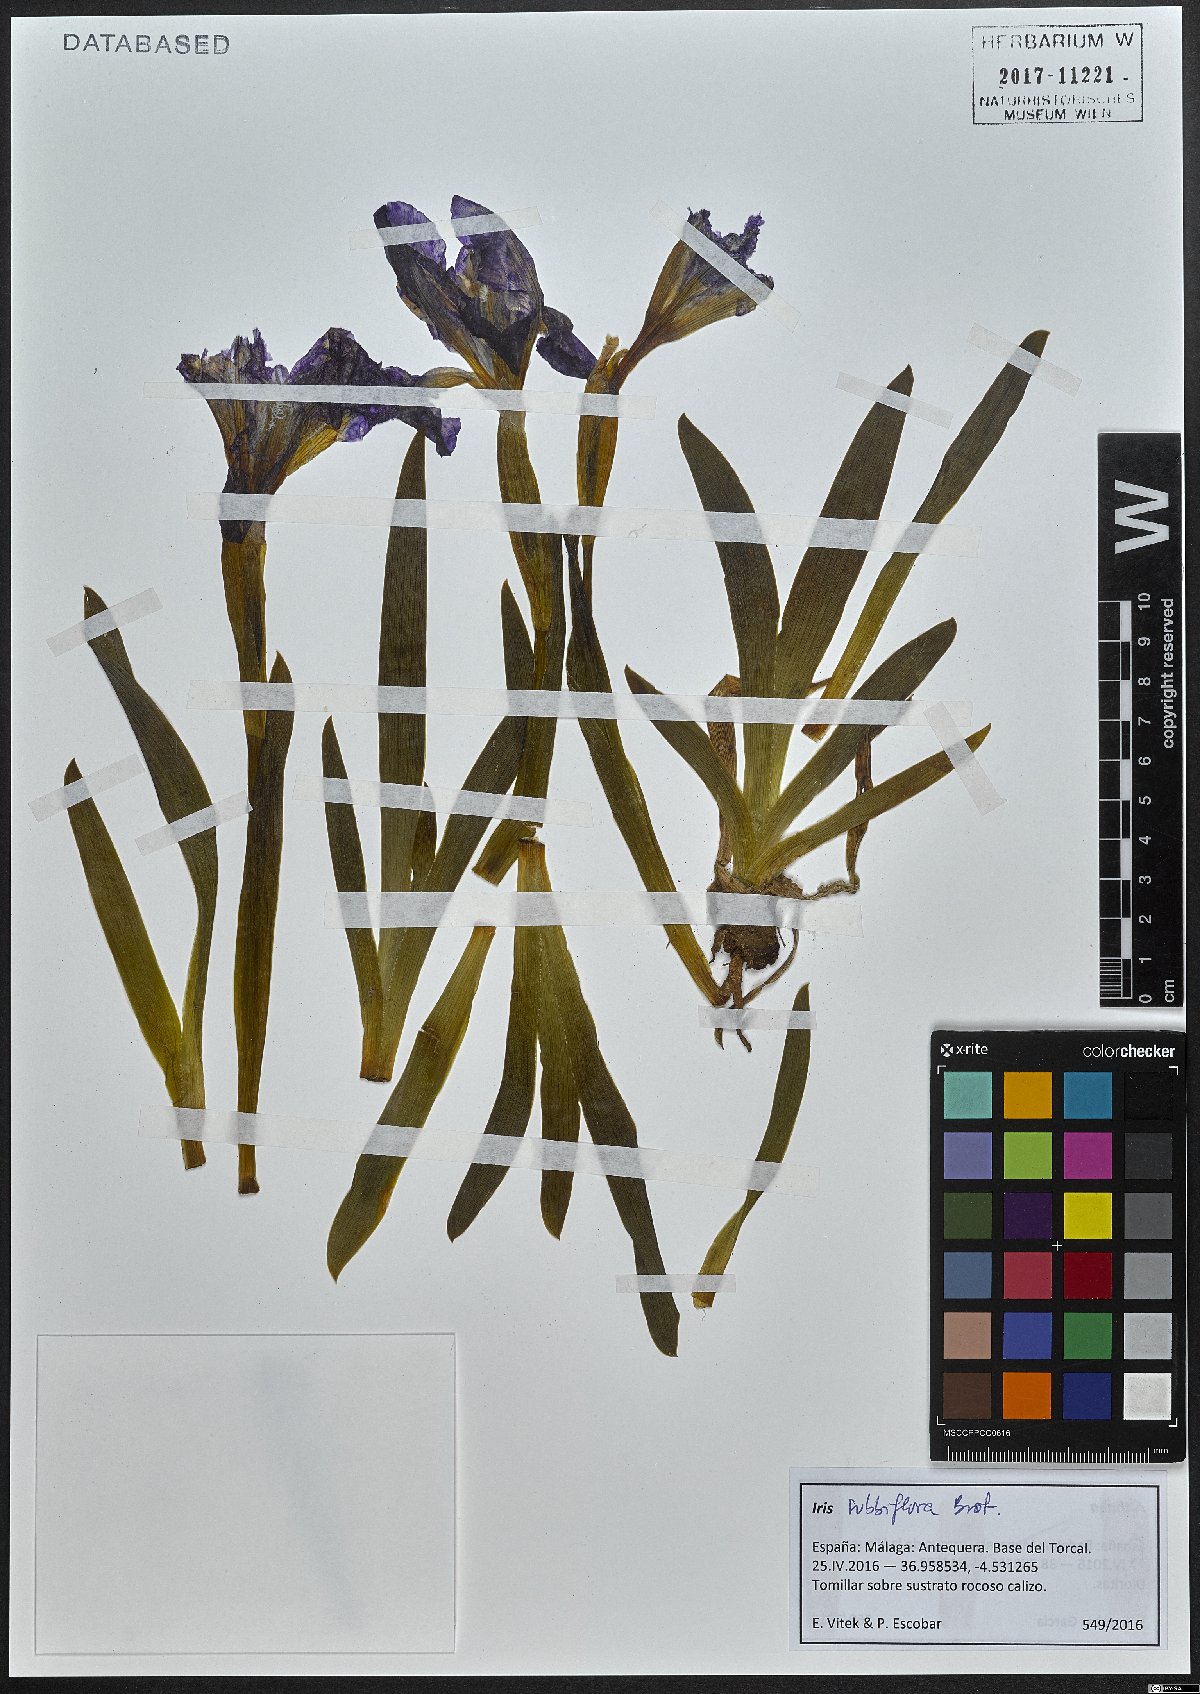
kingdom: Plantae
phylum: Tracheophyta
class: Liliopsida
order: Asparagales
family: Iridaceae
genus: Iris
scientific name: Iris lutescens
